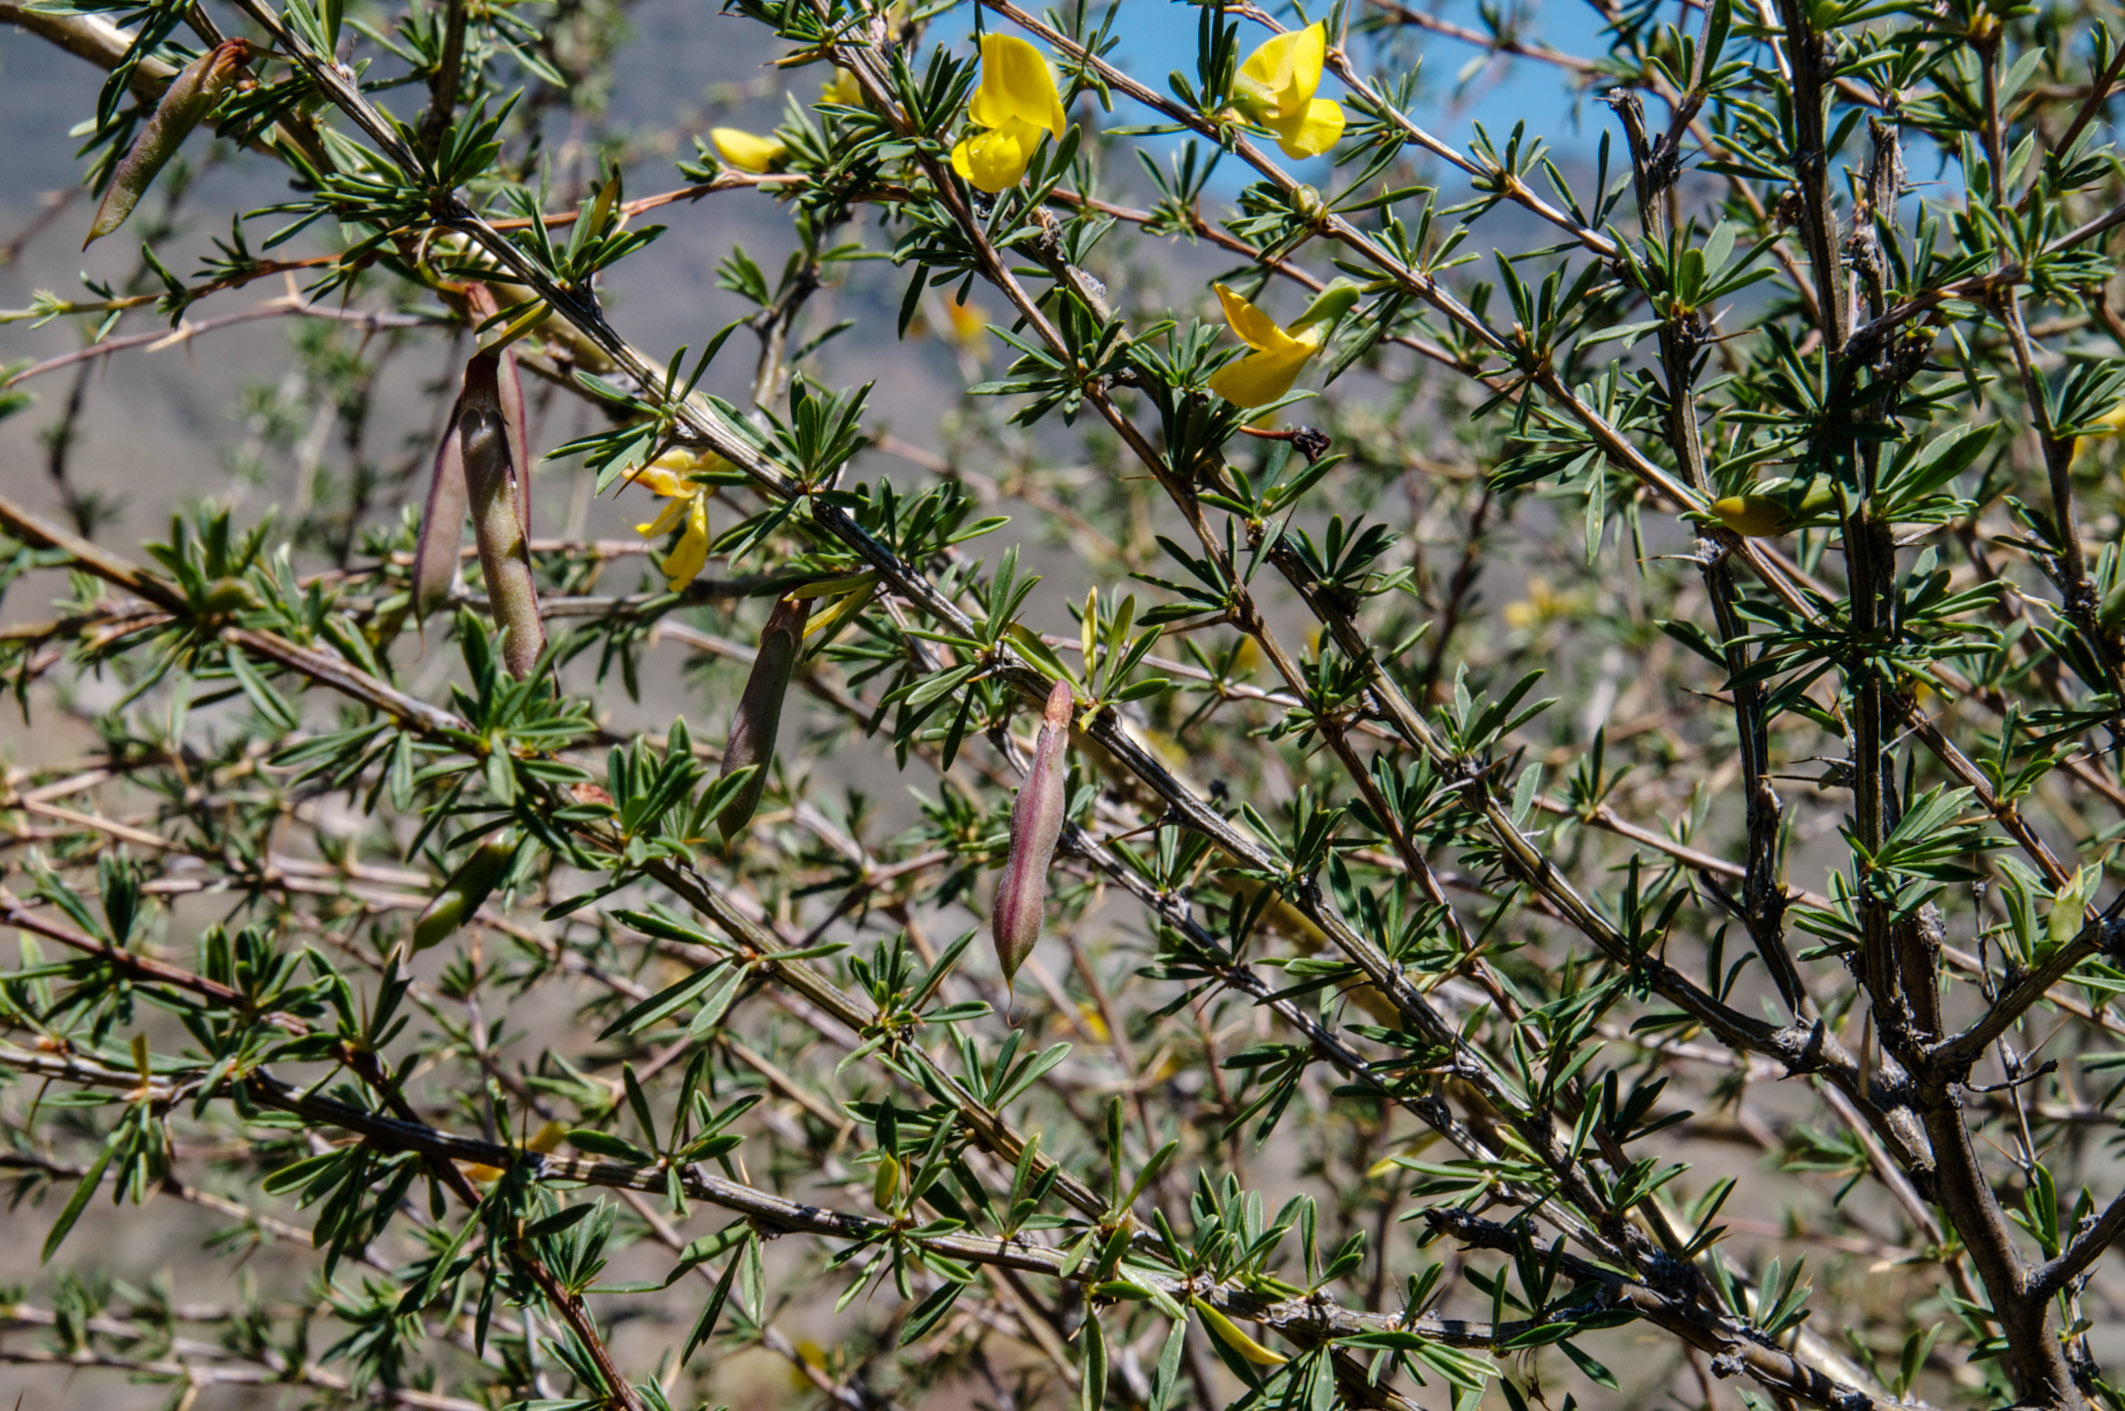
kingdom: Plantae
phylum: Tracheophyta
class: Magnoliopsida
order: Fabales
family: Fabaceae
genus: Caragana
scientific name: Caragana pygmaea
